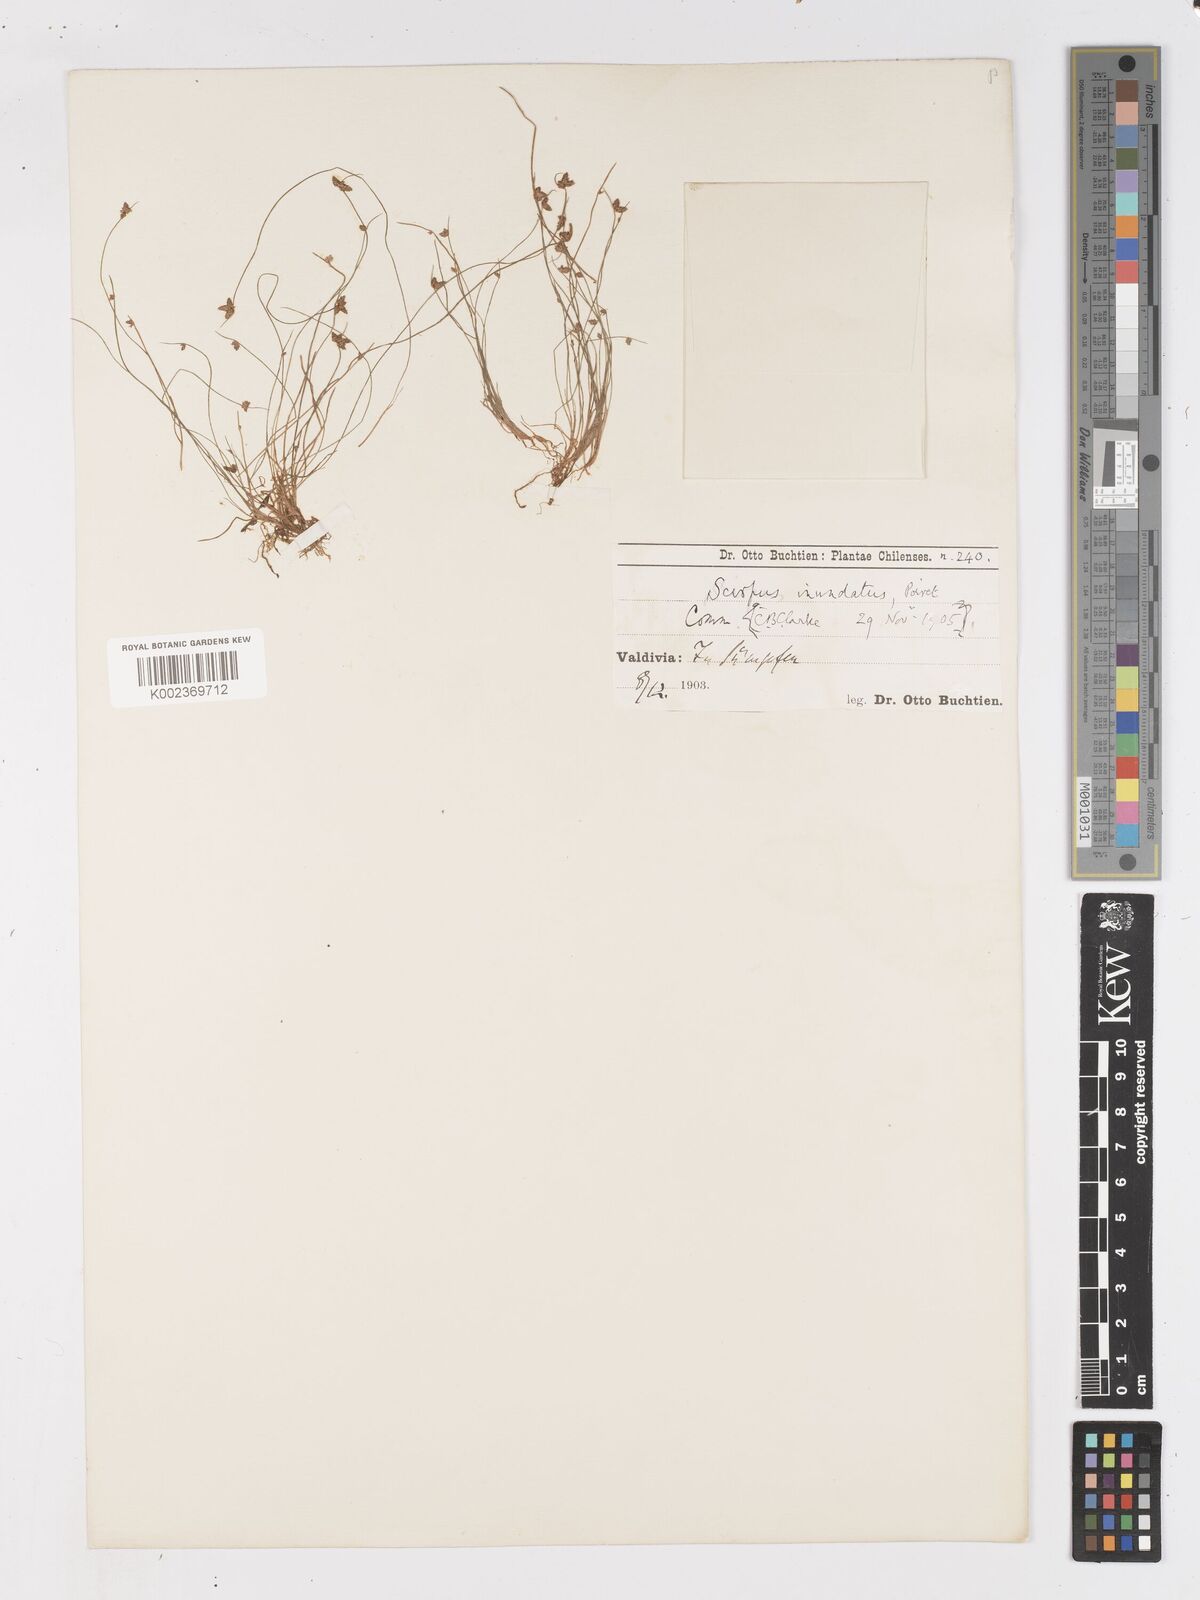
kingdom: Plantae
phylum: Tracheophyta
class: Liliopsida
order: Poales
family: Cyperaceae
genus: Isolepis
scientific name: Isolepis inundata
